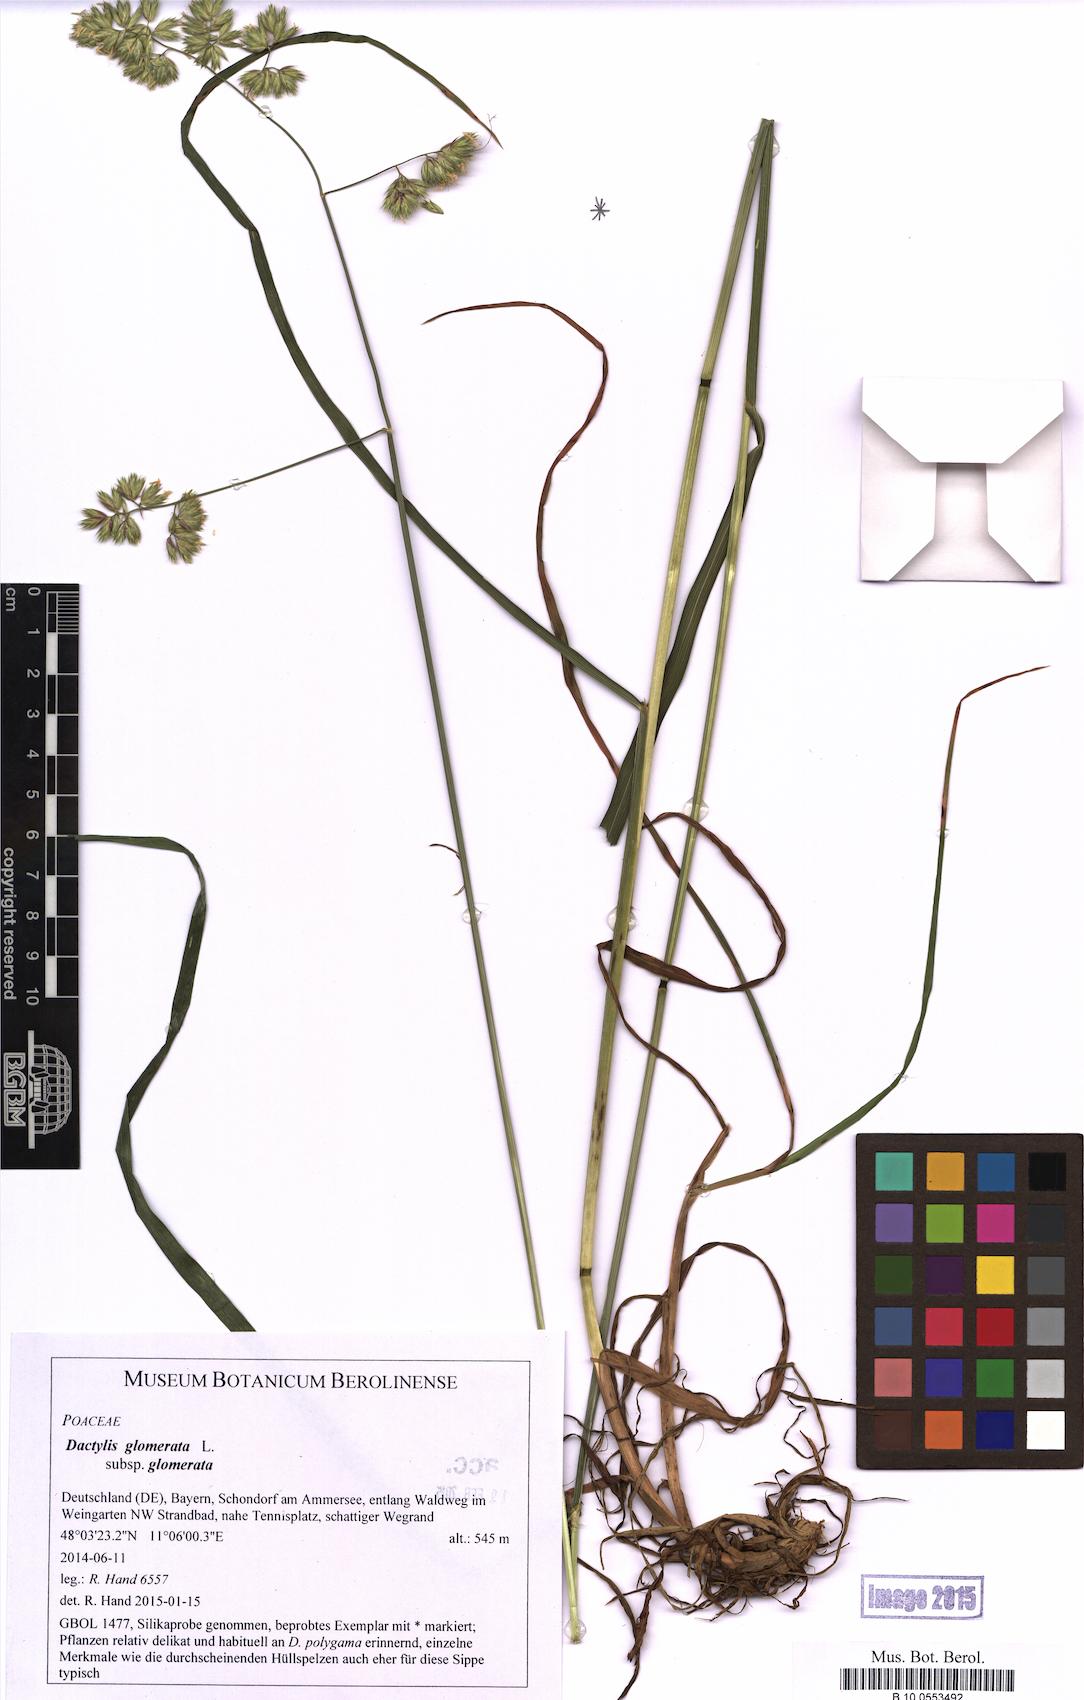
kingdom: Plantae
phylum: Tracheophyta
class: Liliopsida
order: Poales
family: Poaceae
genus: Dactylis
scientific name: Dactylis glomerata
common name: Orchardgrass
